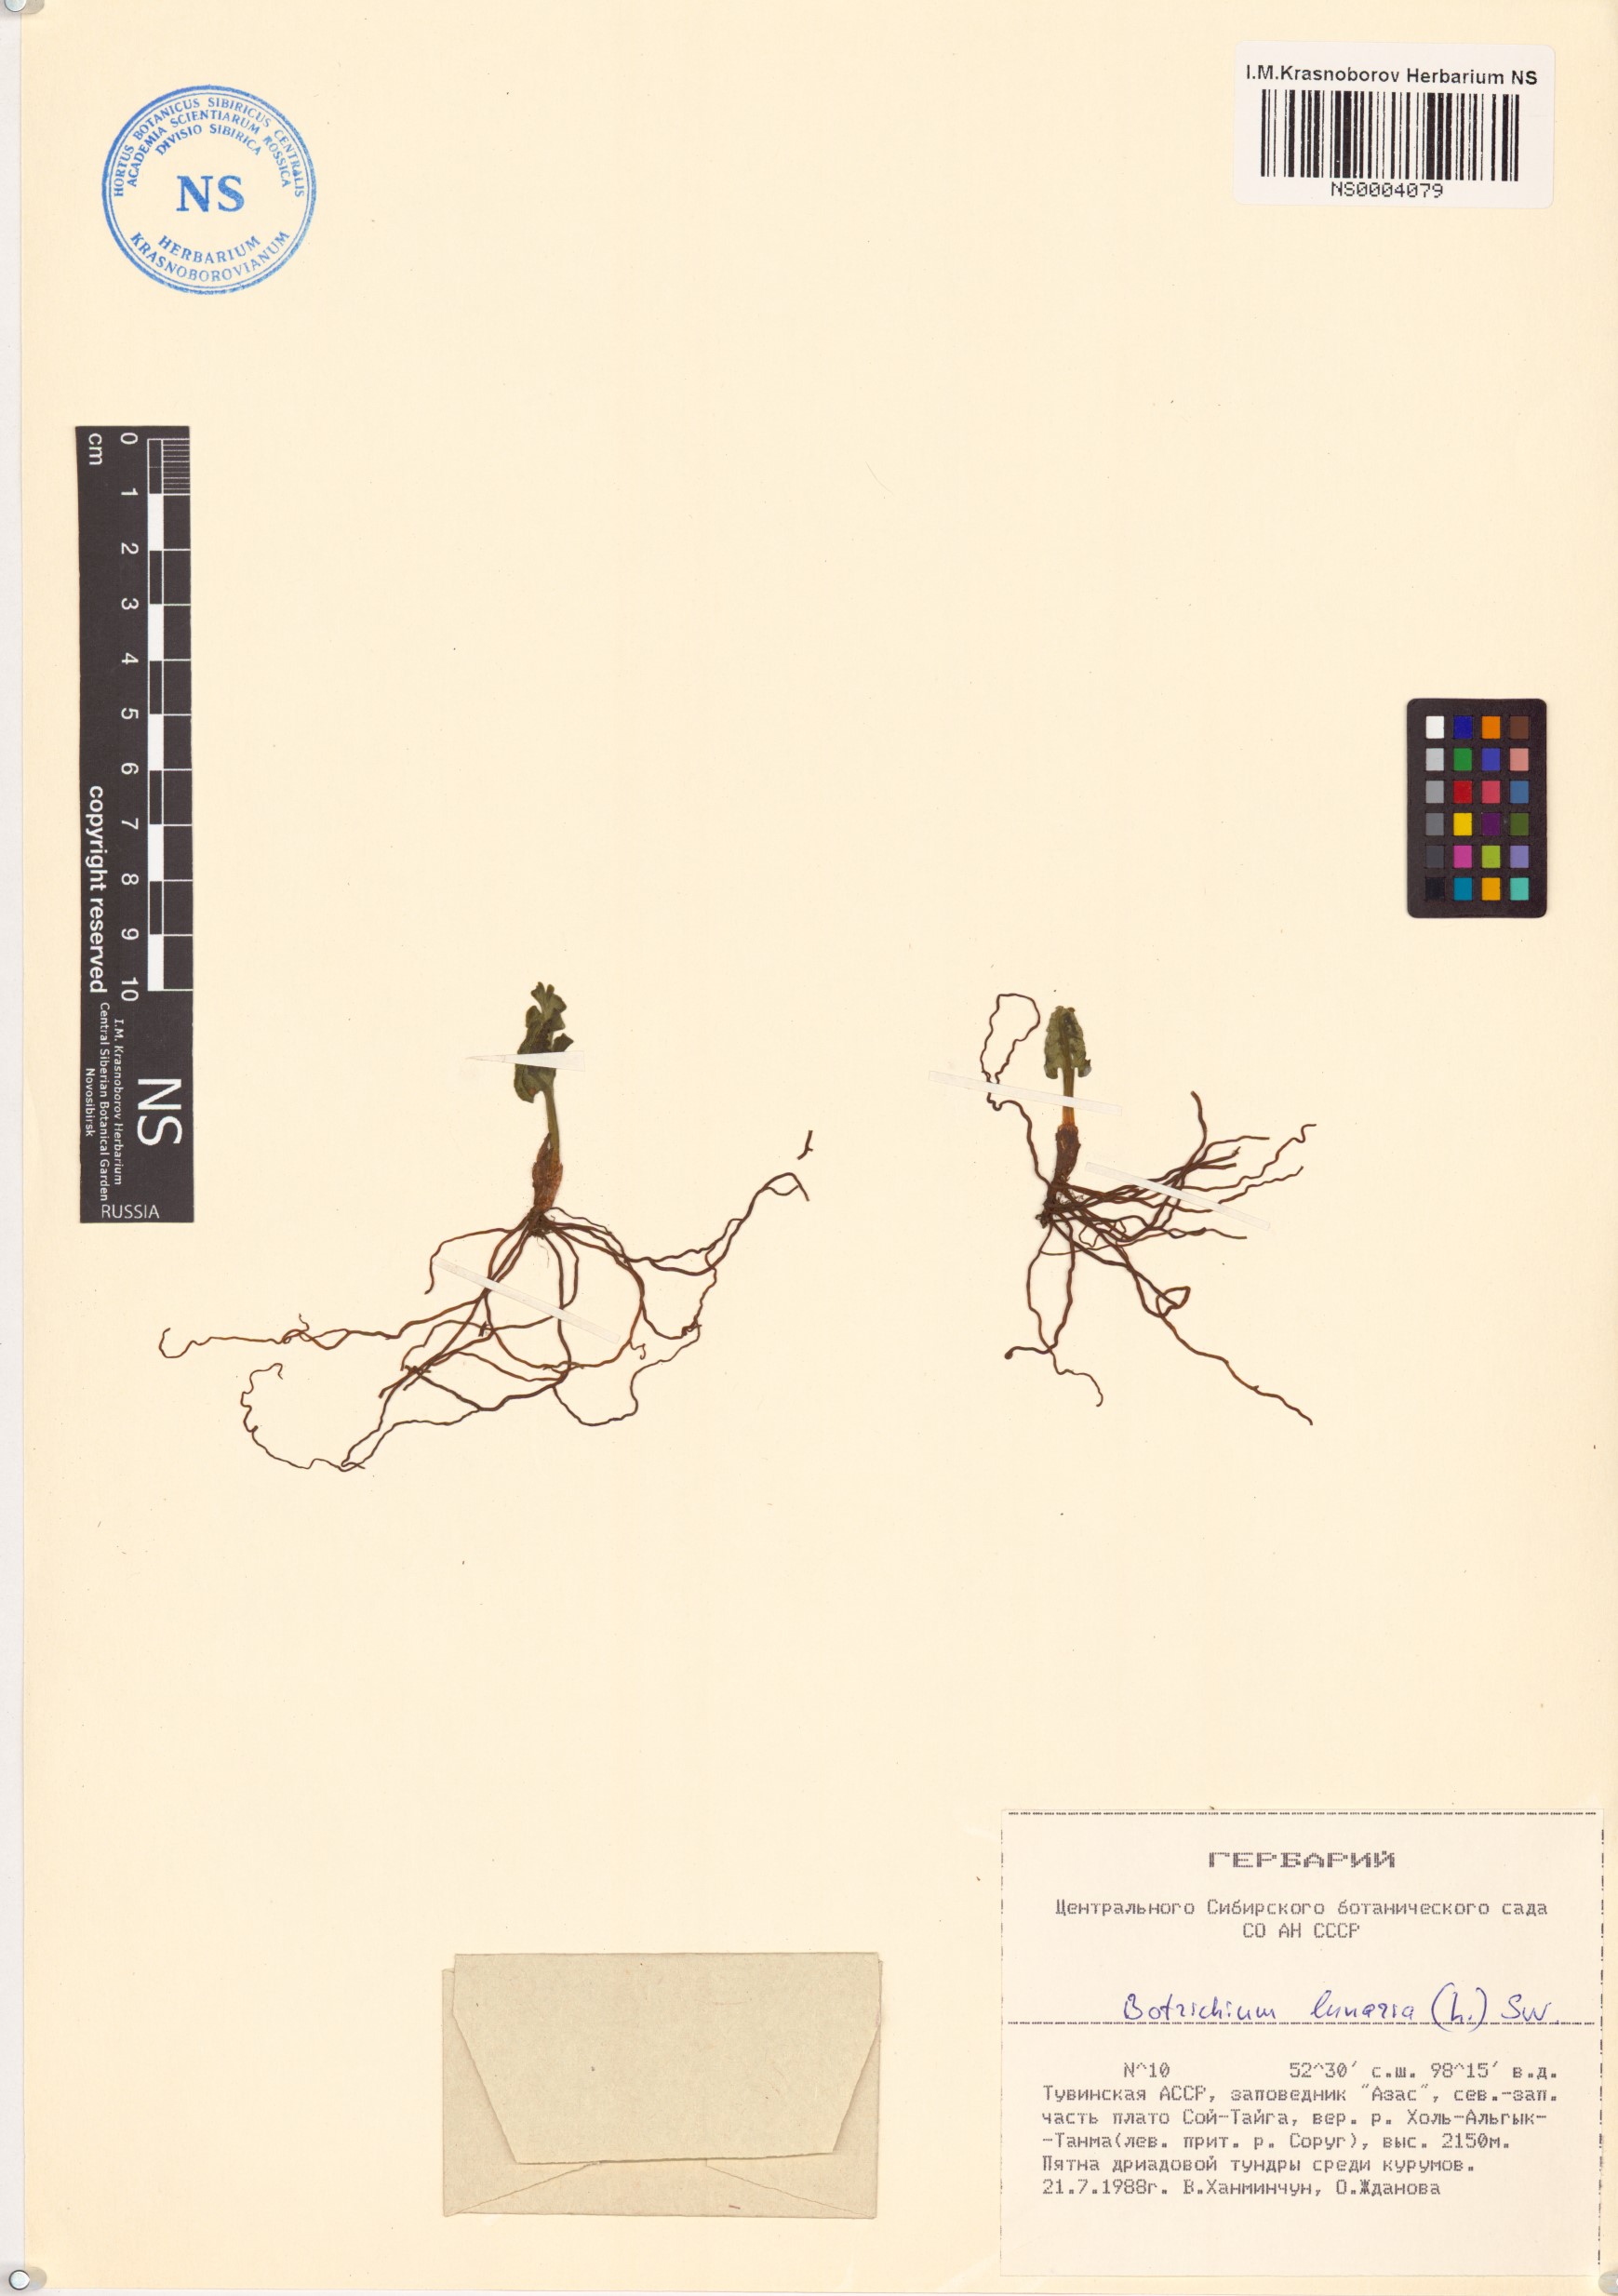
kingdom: Plantae
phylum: Tracheophyta
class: Polypodiopsida
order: Ophioglossales
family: Ophioglossaceae
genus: Botrychium
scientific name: Botrychium lunaria
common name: Moonwort
